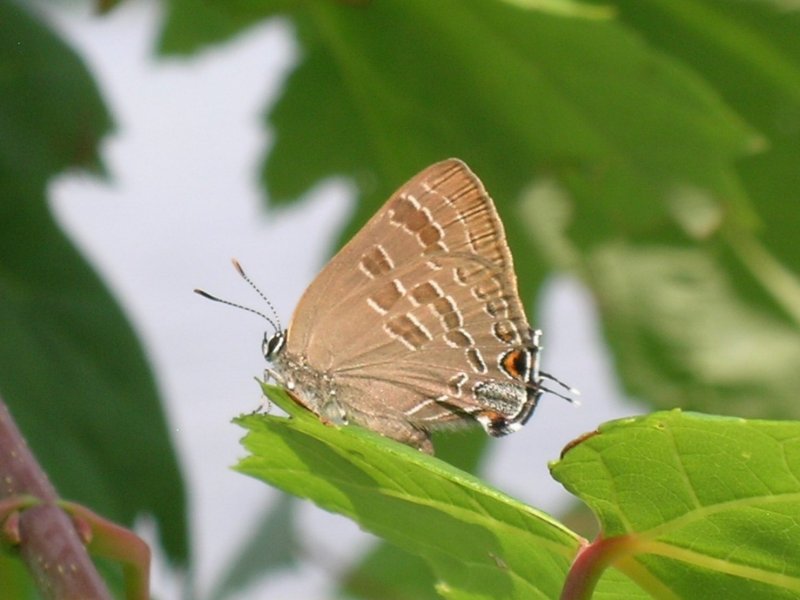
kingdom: Animalia
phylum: Arthropoda
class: Insecta
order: Lepidoptera
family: Lycaenidae
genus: Strymon
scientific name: Strymon caryaevorus
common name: Hickory Hairstreak
